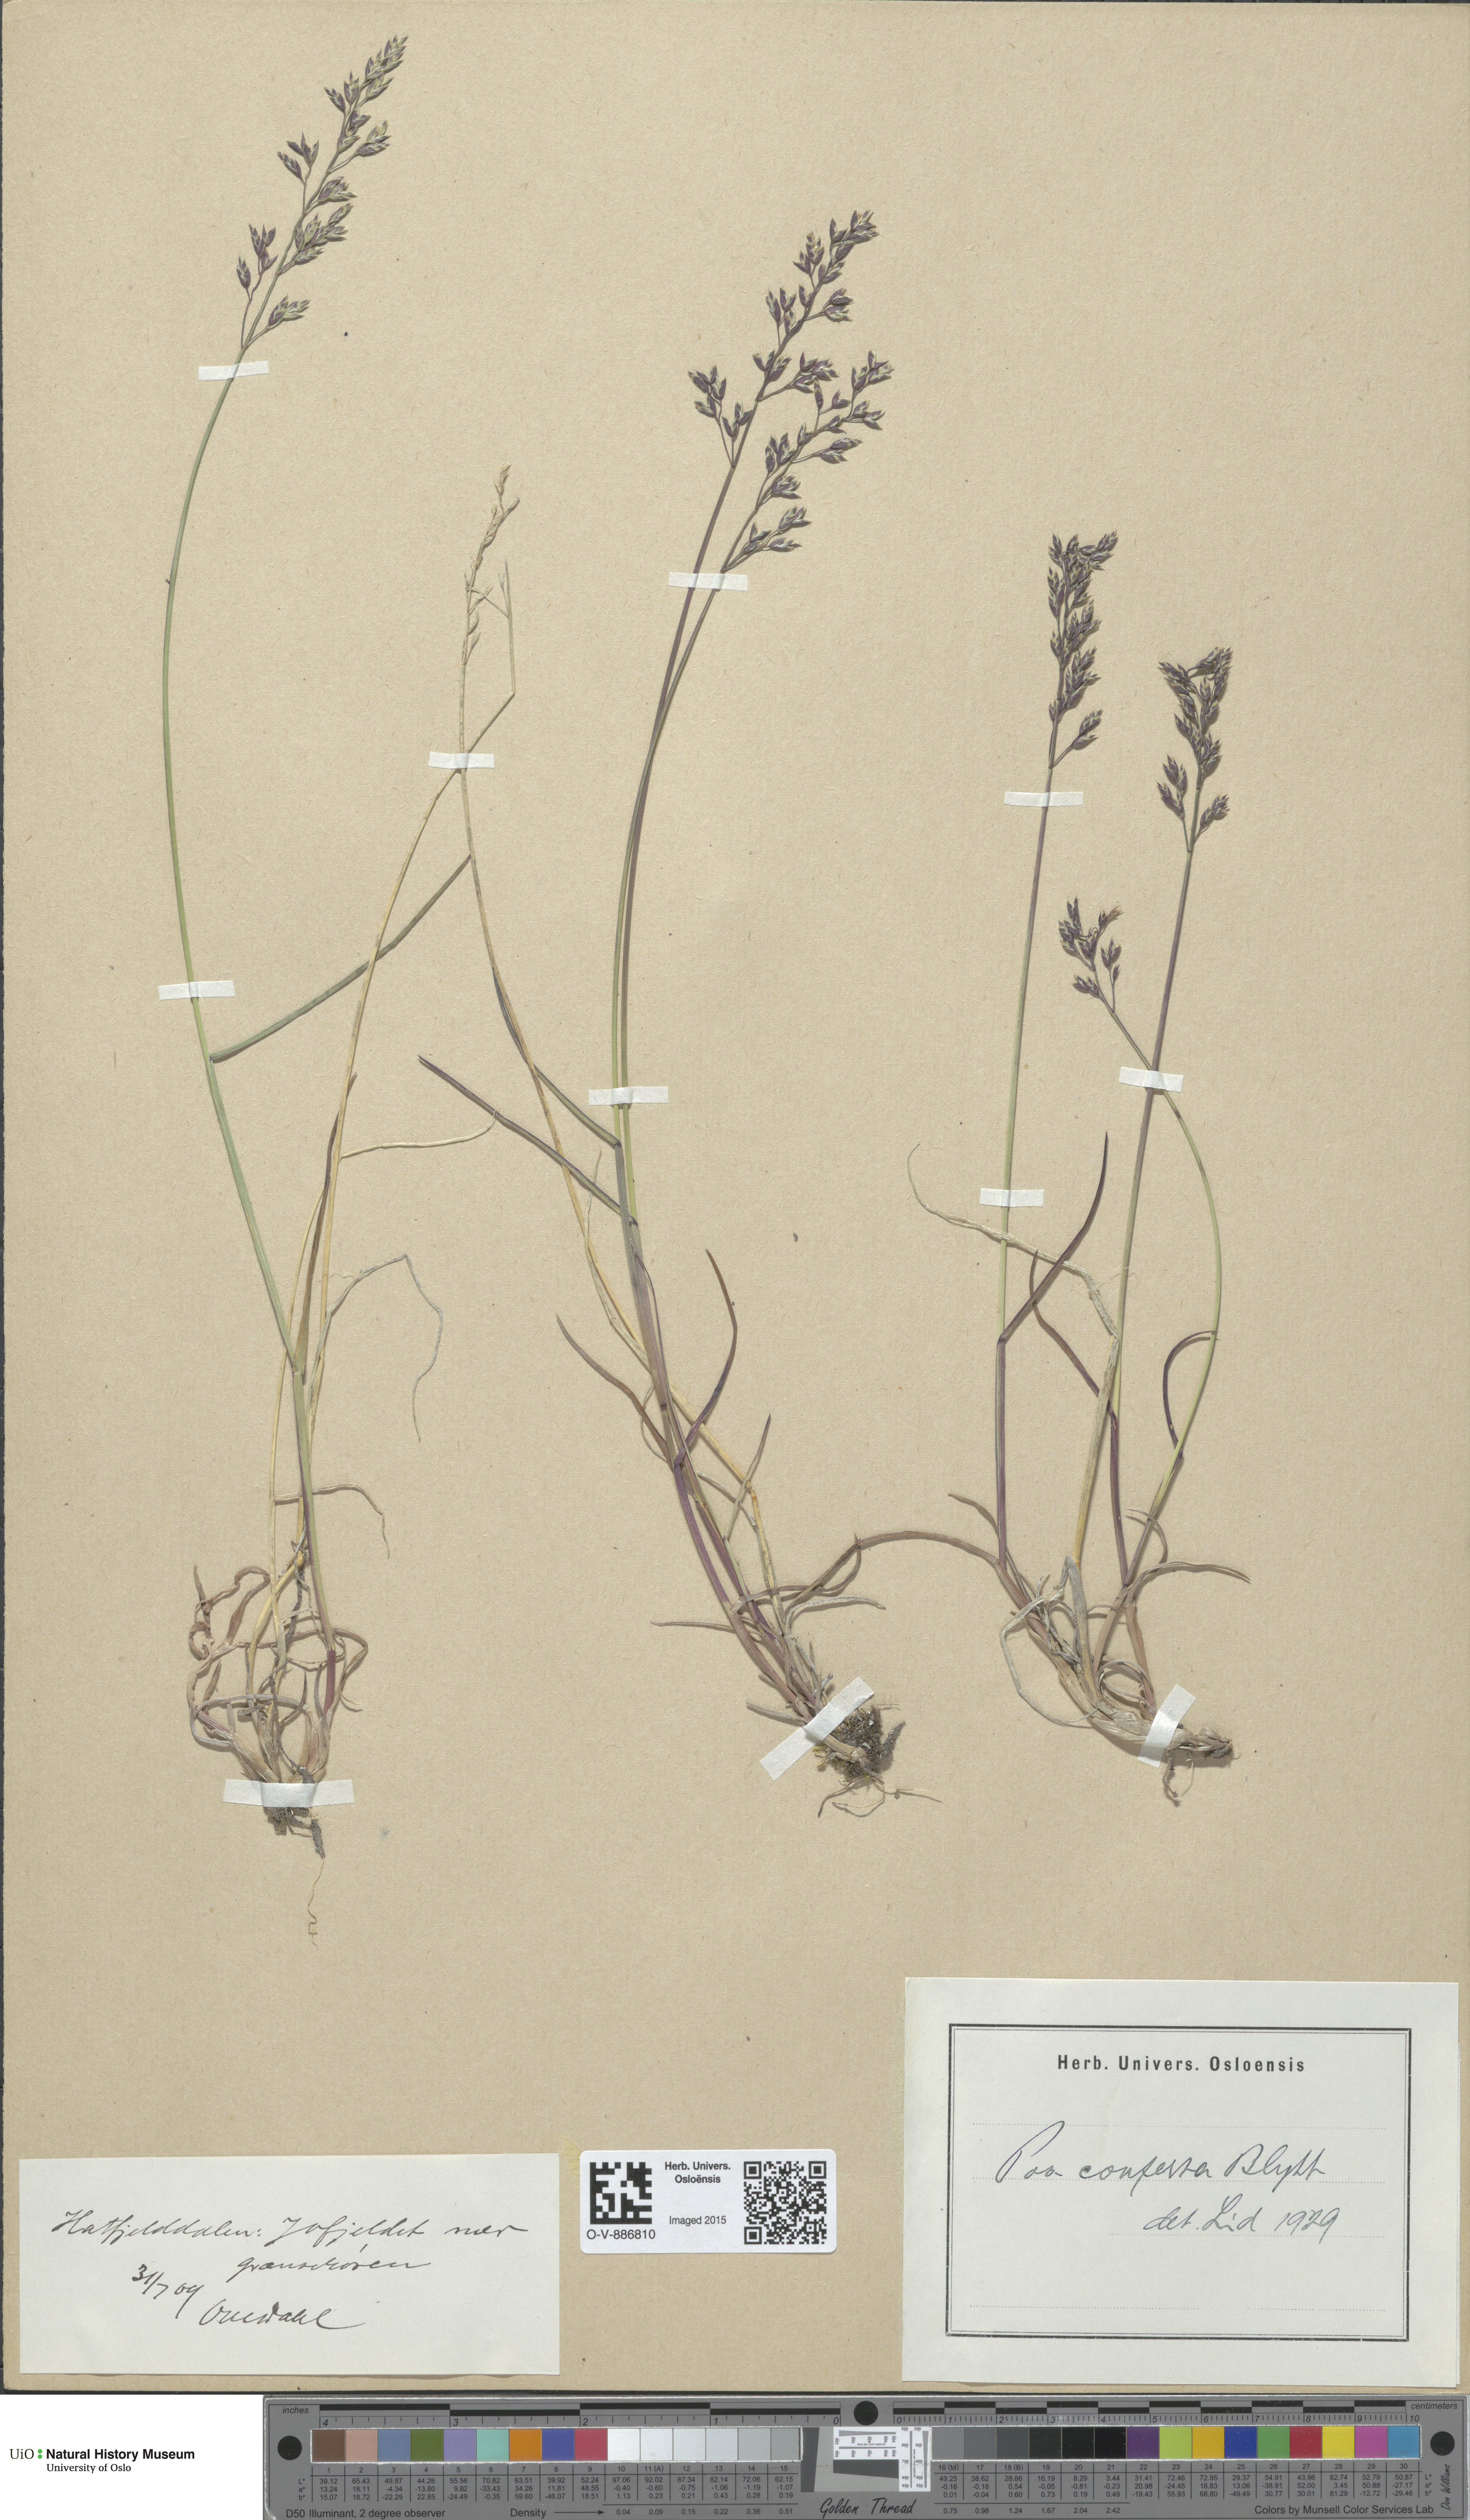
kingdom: Plantae
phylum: Tracheophyta
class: Liliopsida
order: Poales
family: Poaceae
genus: Poa
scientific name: Poa glauca
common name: Glaucous bluegrass
